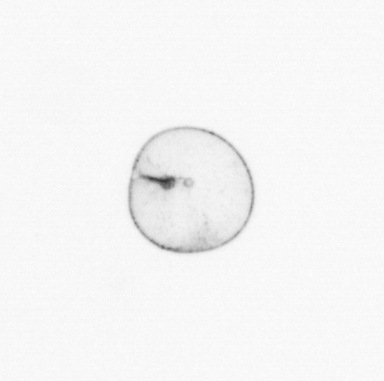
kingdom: Chromista
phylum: Myzozoa
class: Dinophyceae
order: Noctilucales
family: Noctilucaceae
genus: Noctiluca
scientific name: Noctiluca scintillans
